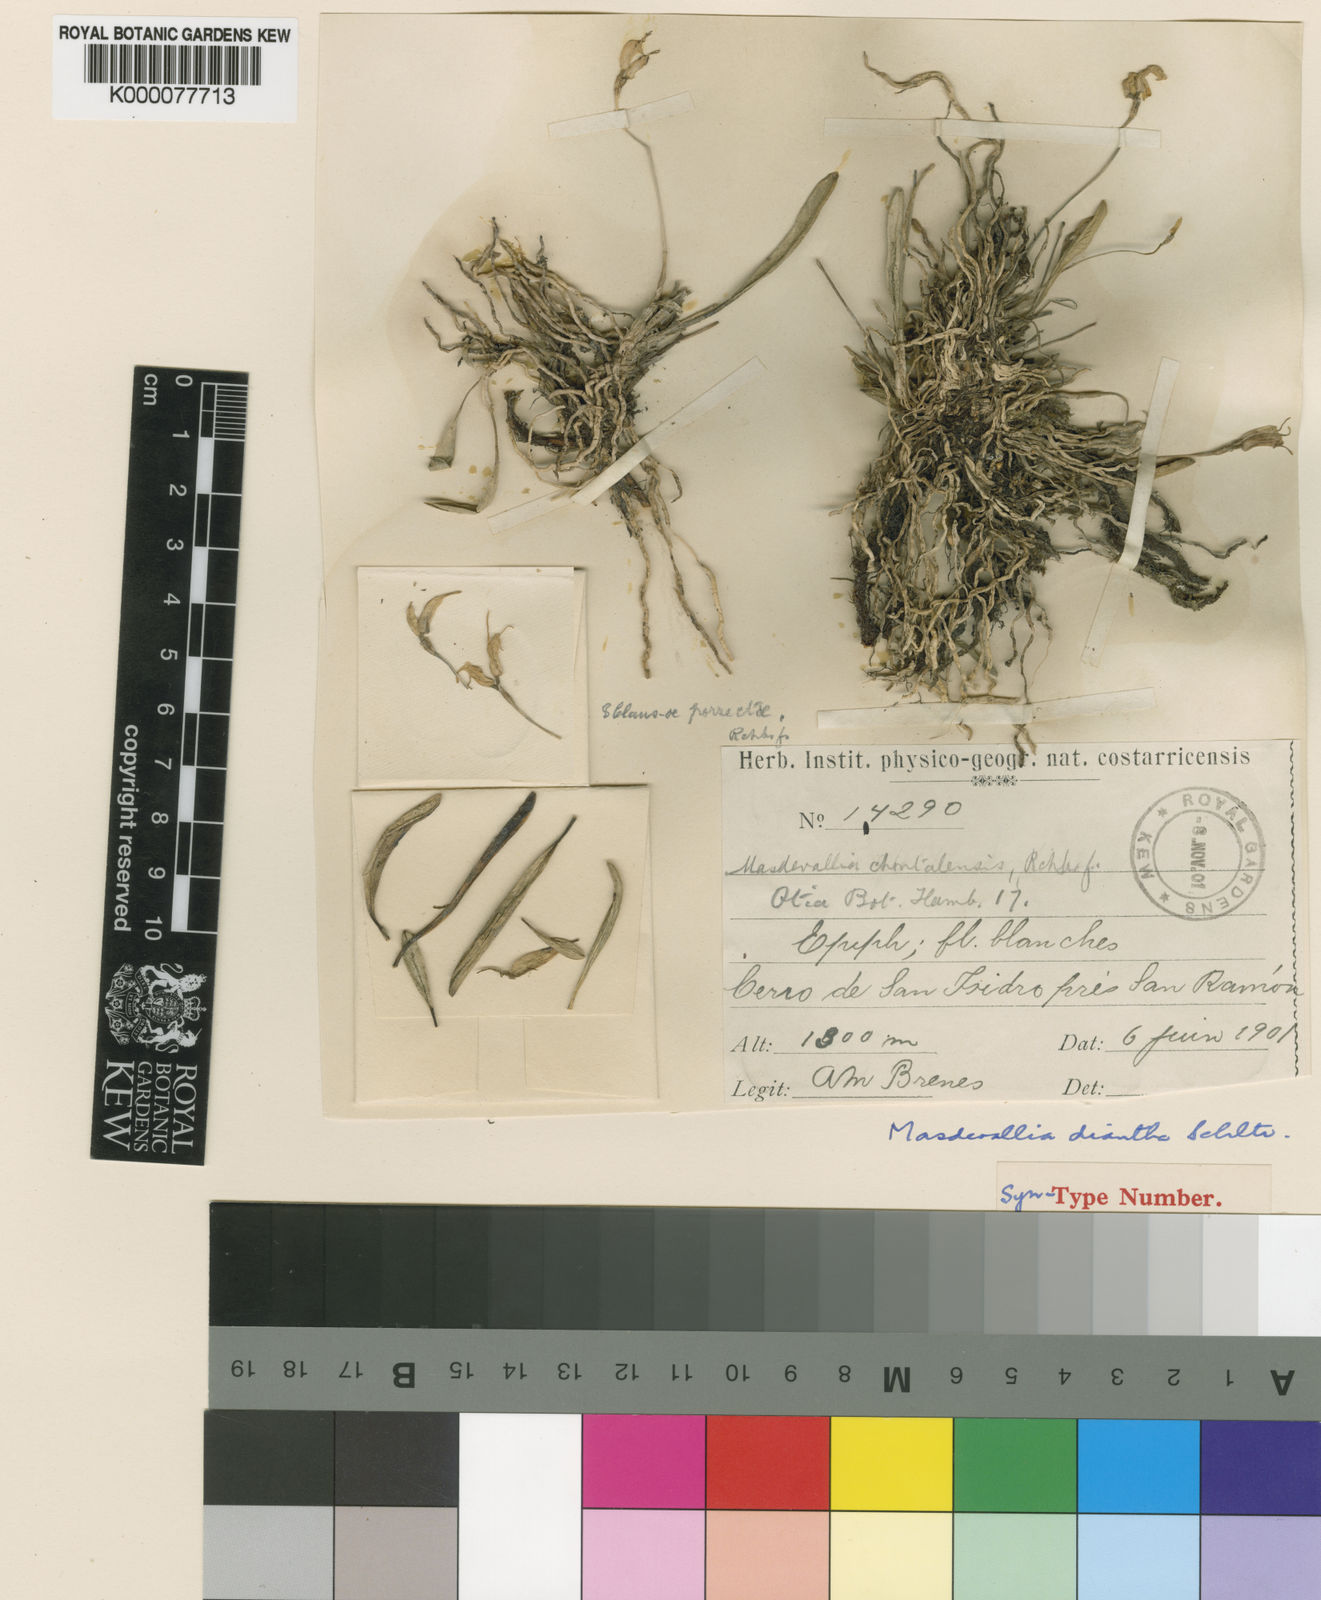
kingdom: Plantae
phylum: Tracheophyta
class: Liliopsida
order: Asparagales
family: Orchidaceae
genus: Masdevallia
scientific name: Masdevallia chontalensis
